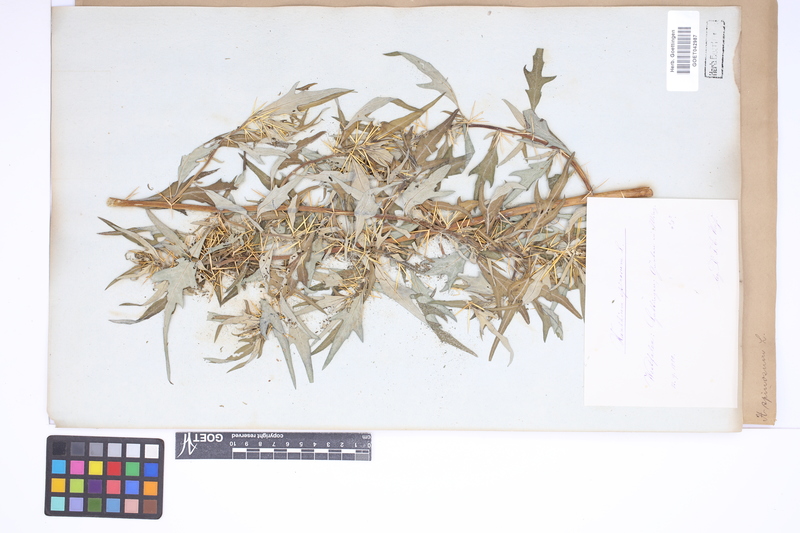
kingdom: Plantae
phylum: Tracheophyta
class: Magnoliopsida
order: Asterales
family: Asteraceae
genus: Xanthium
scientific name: Xanthium spinosum
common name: Spiny cocklebur
